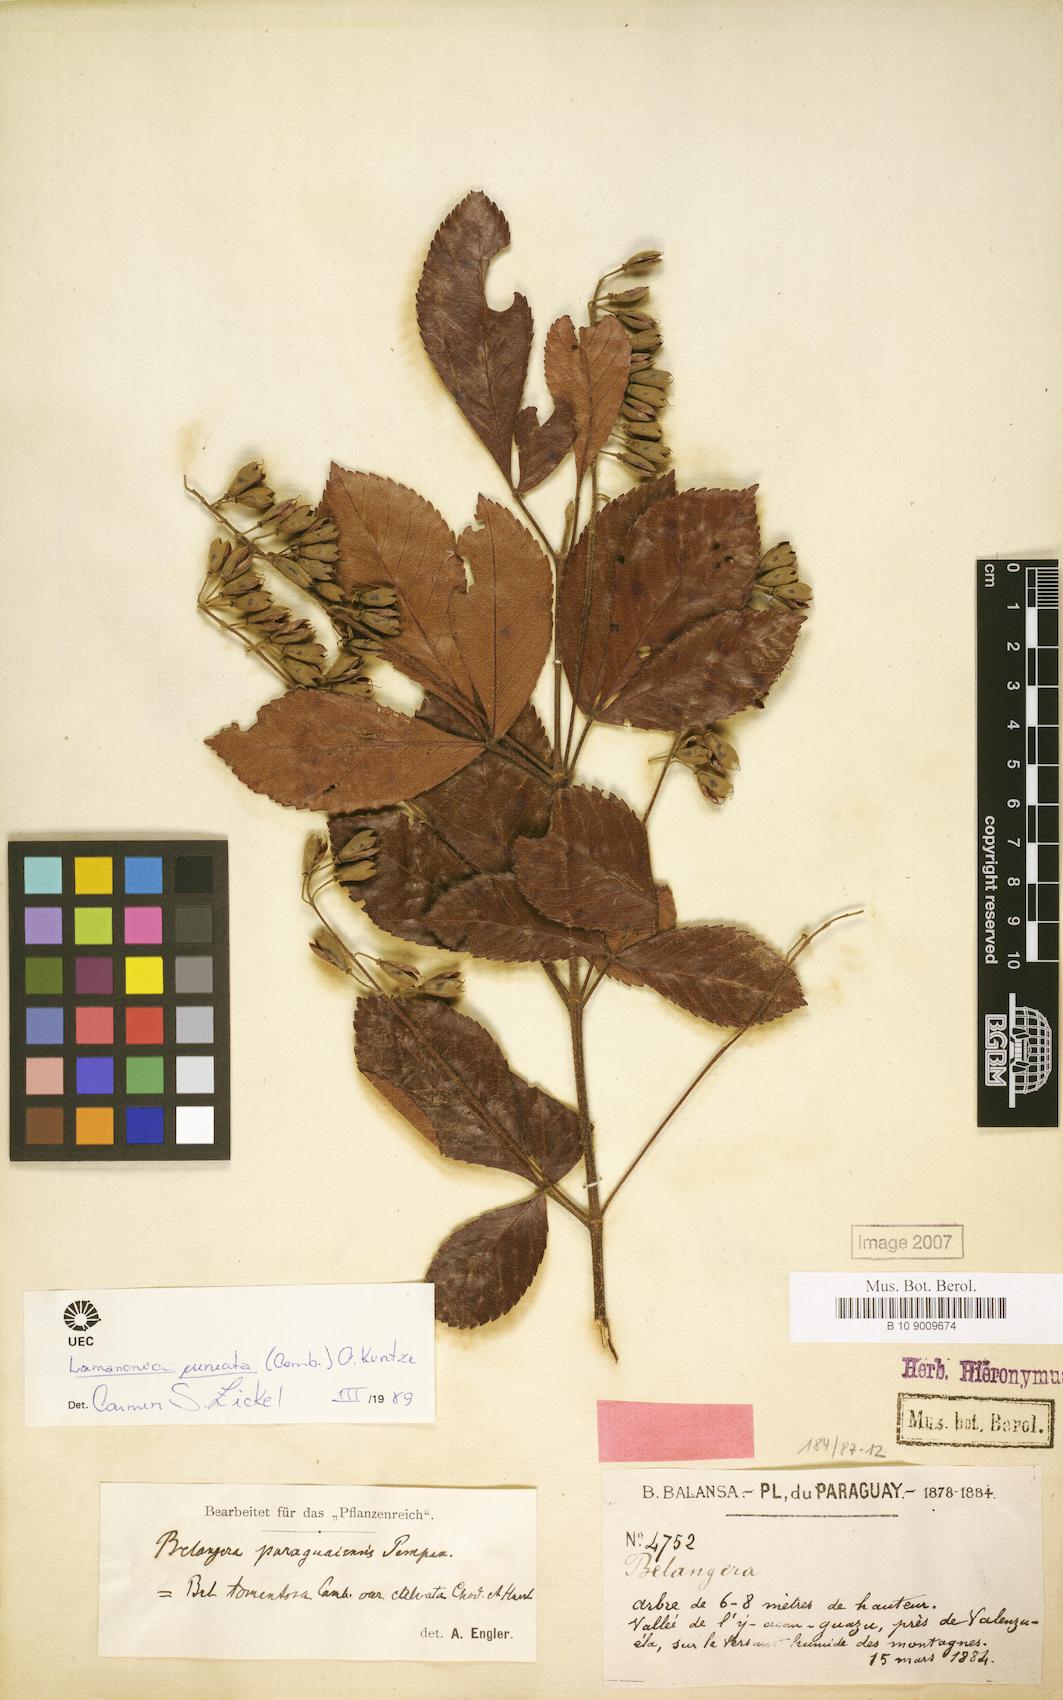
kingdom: Plantae
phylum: Tracheophyta
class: Magnoliopsida
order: Oxalidales
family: Cunoniaceae
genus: Lamanonia
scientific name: Lamanonia cuneata
